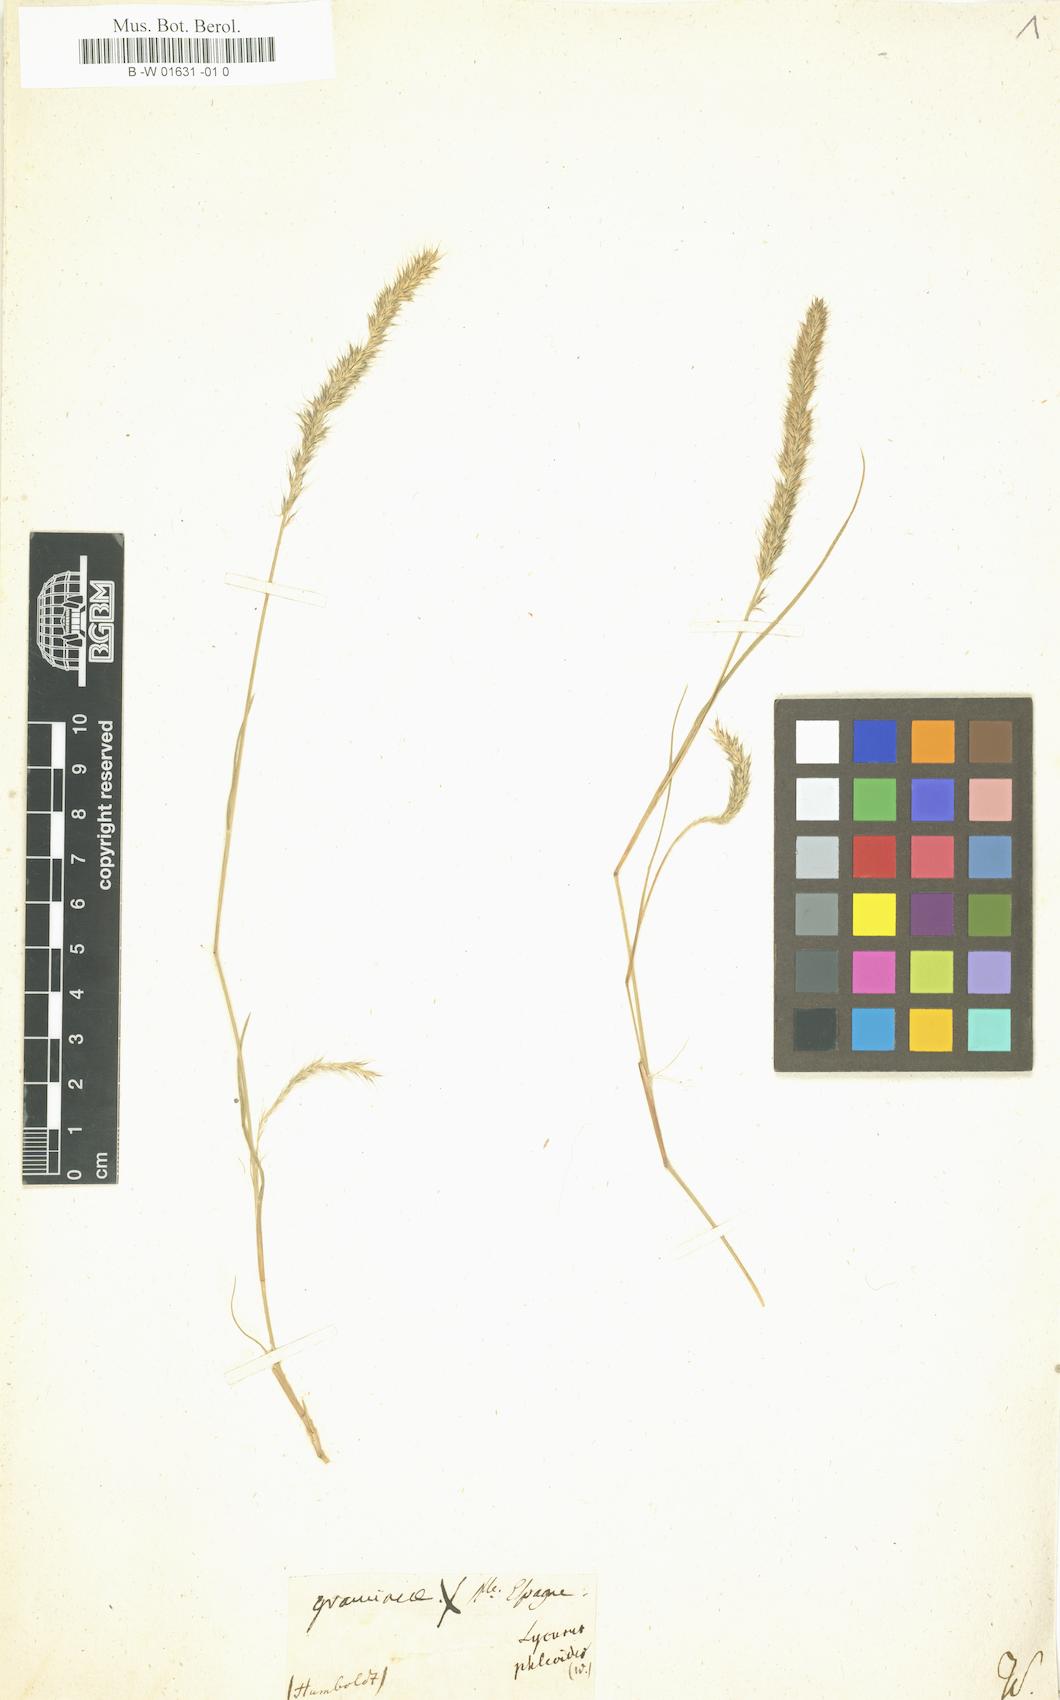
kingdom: Plantae
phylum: Tracheophyta
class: Liliopsida
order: Poales
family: Poaceae
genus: Muhlenbergia
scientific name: Muhlenbergia phleoides
